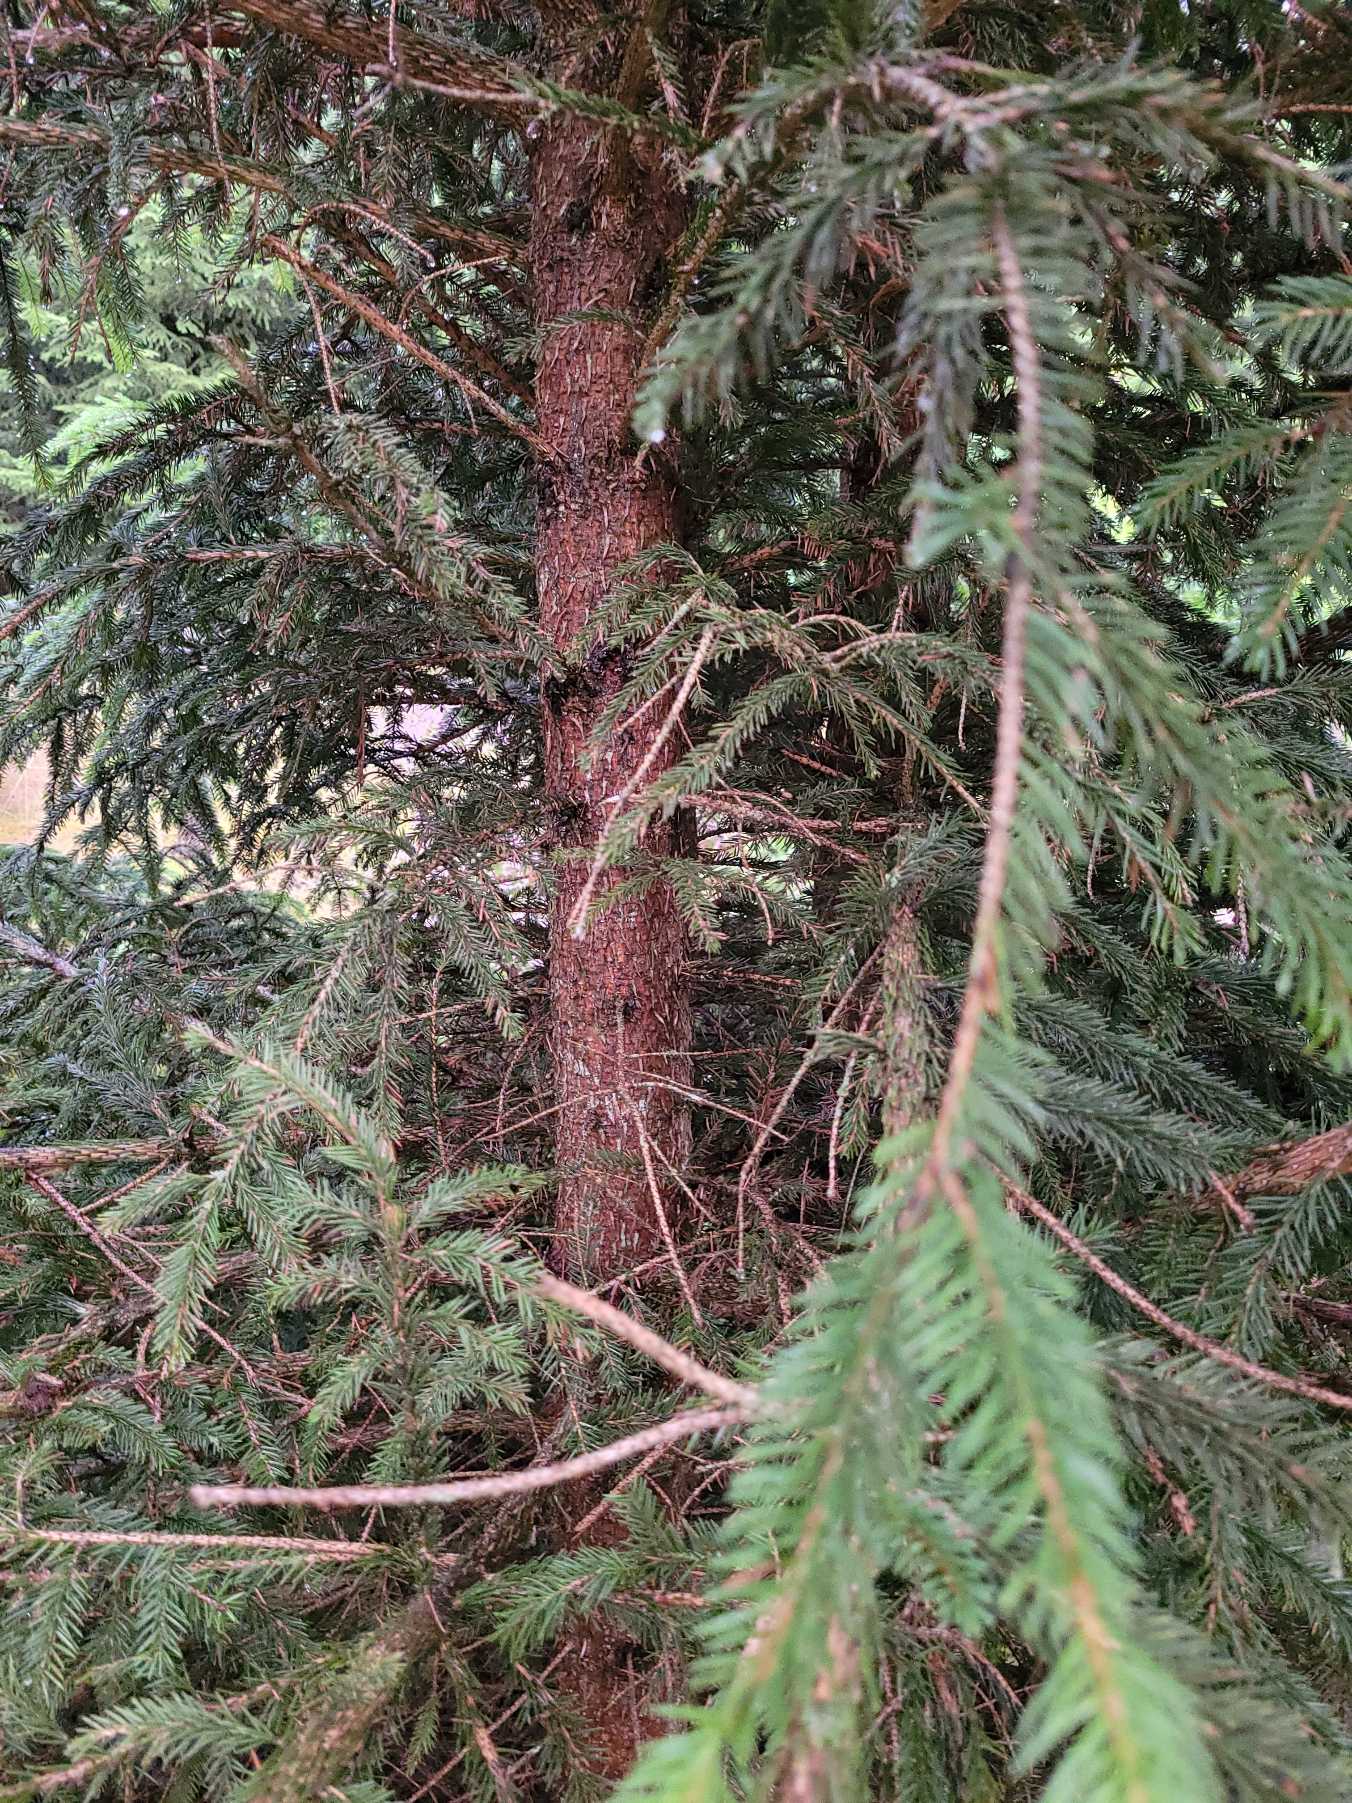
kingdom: Plantae
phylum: Tracheophyta
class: Pinopsida
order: Pinales
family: Pinaceae
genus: Picea
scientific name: Picea abies
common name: Rød-gran
